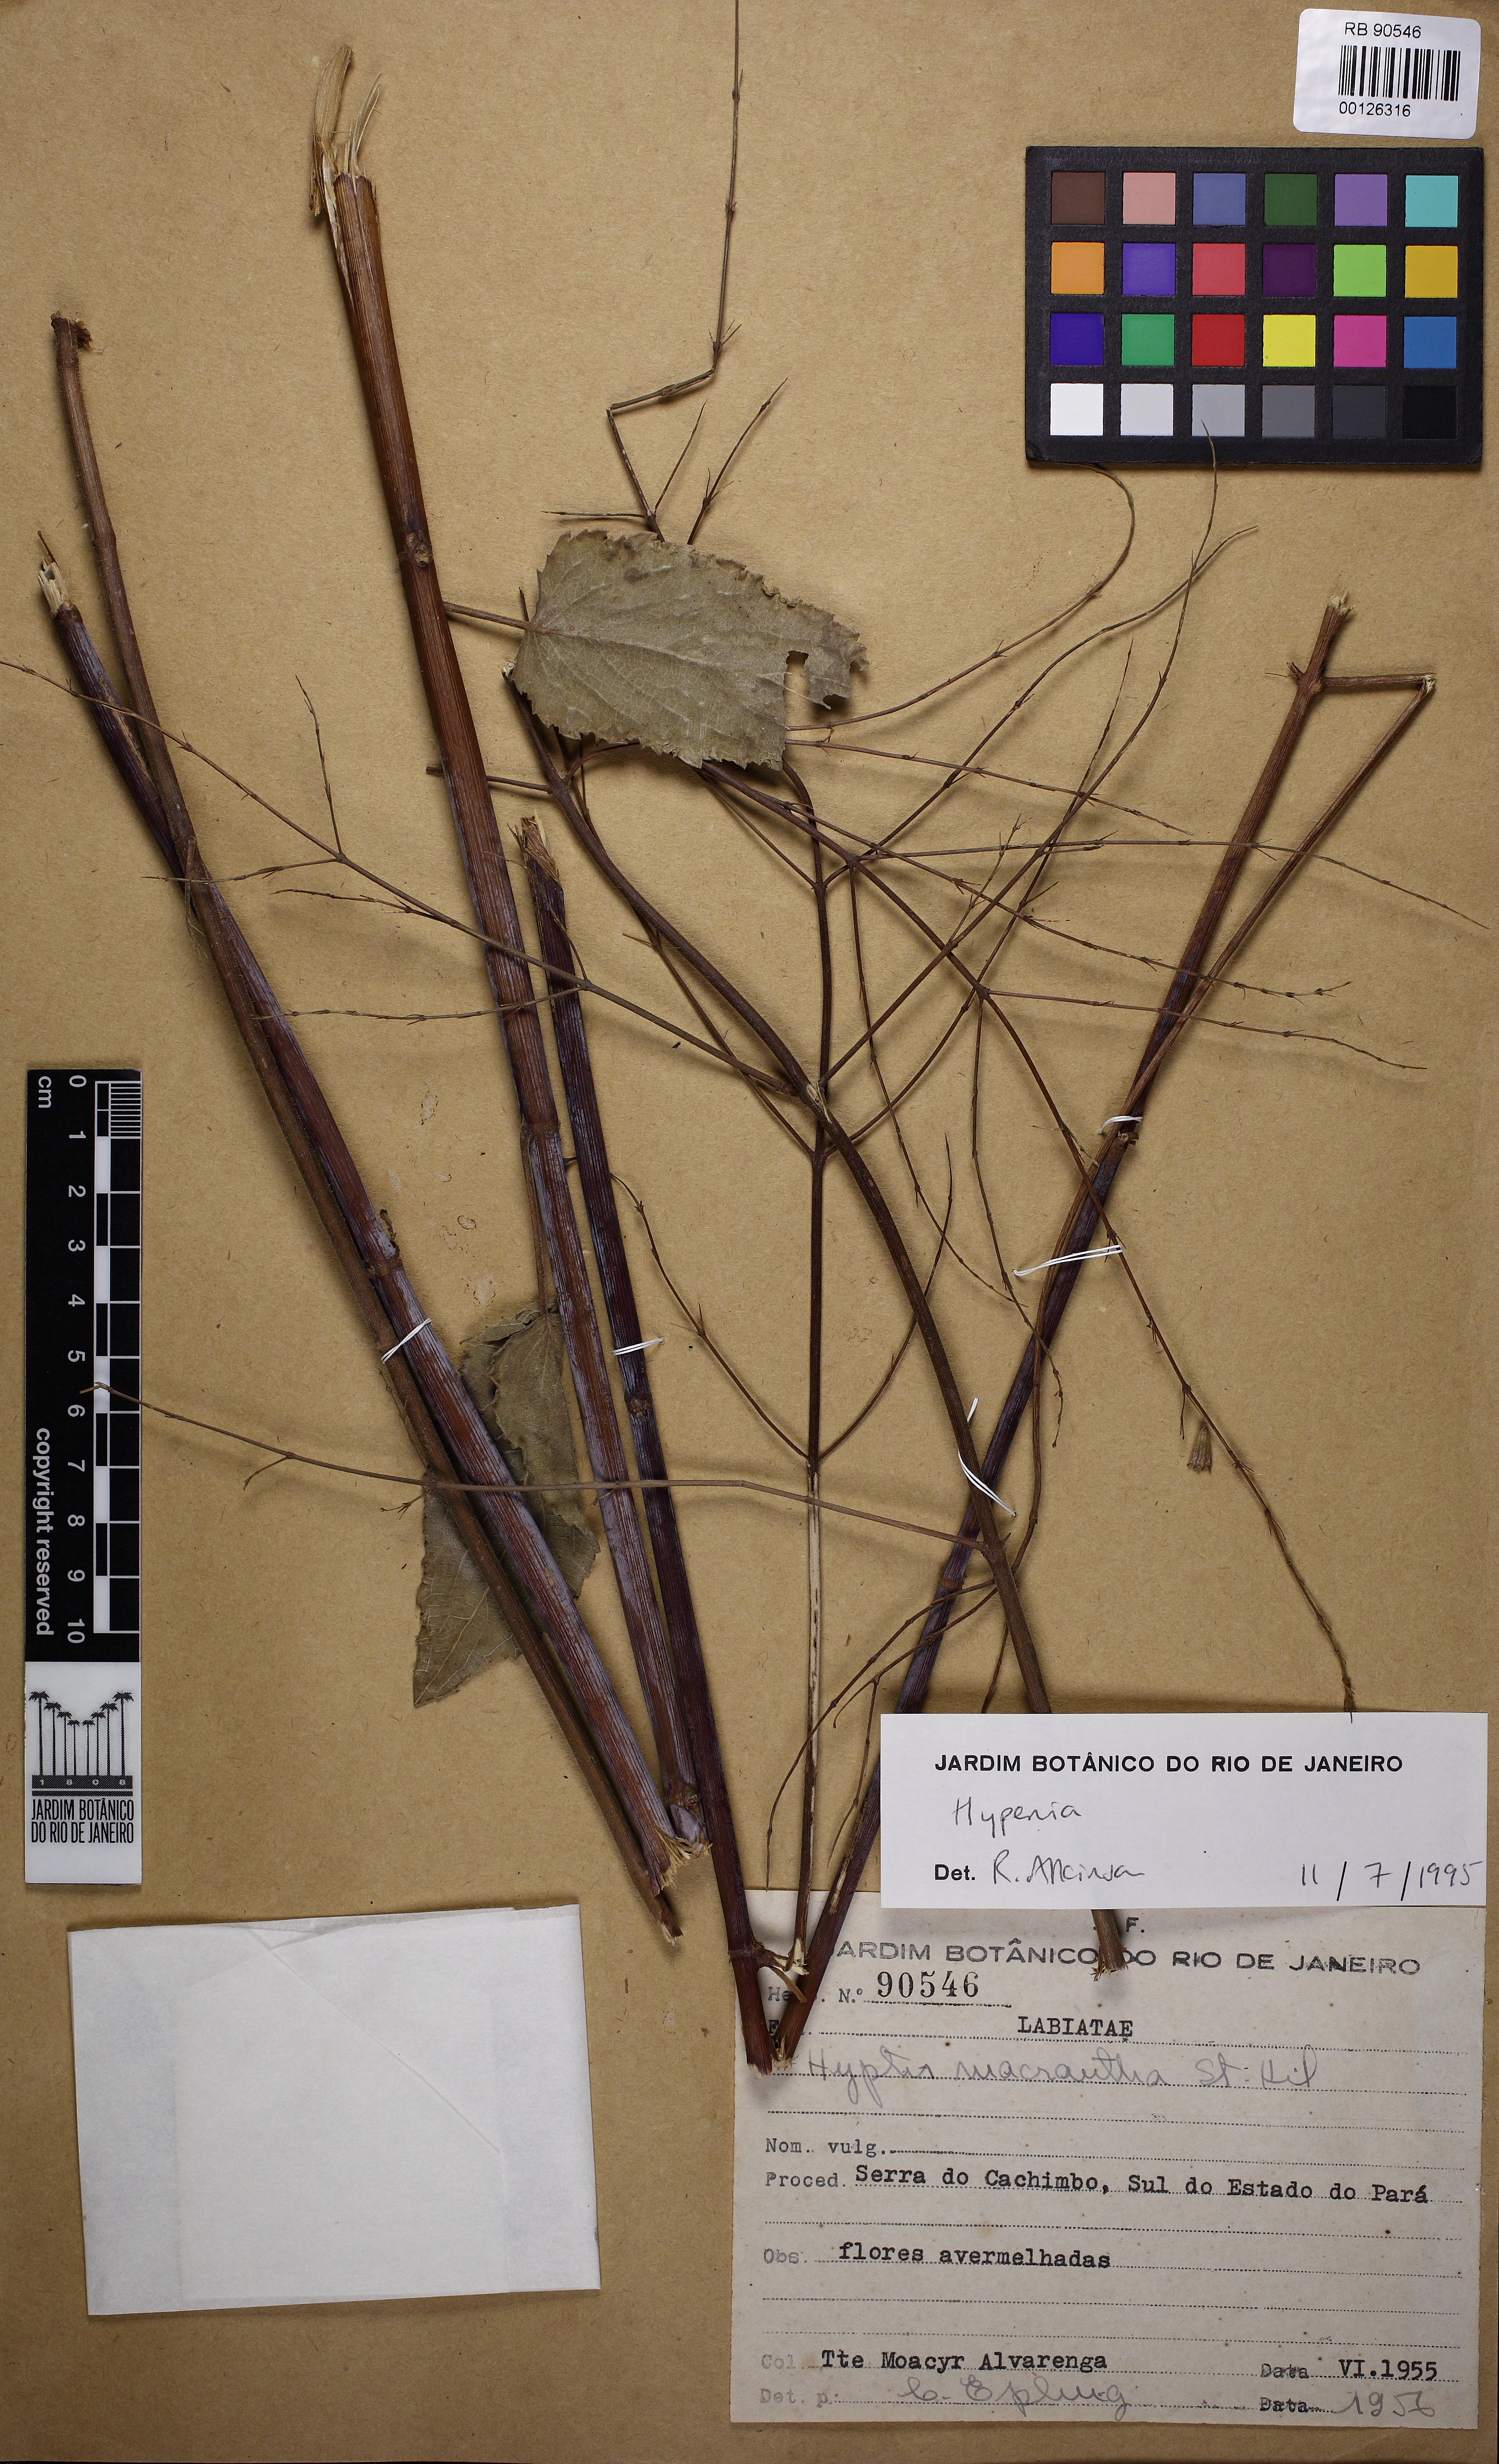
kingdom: Plantae
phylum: Tracheophyta
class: Magnoliopsida
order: Lamiales
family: Lamiaceae
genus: Hypenia
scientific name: Hypenia
